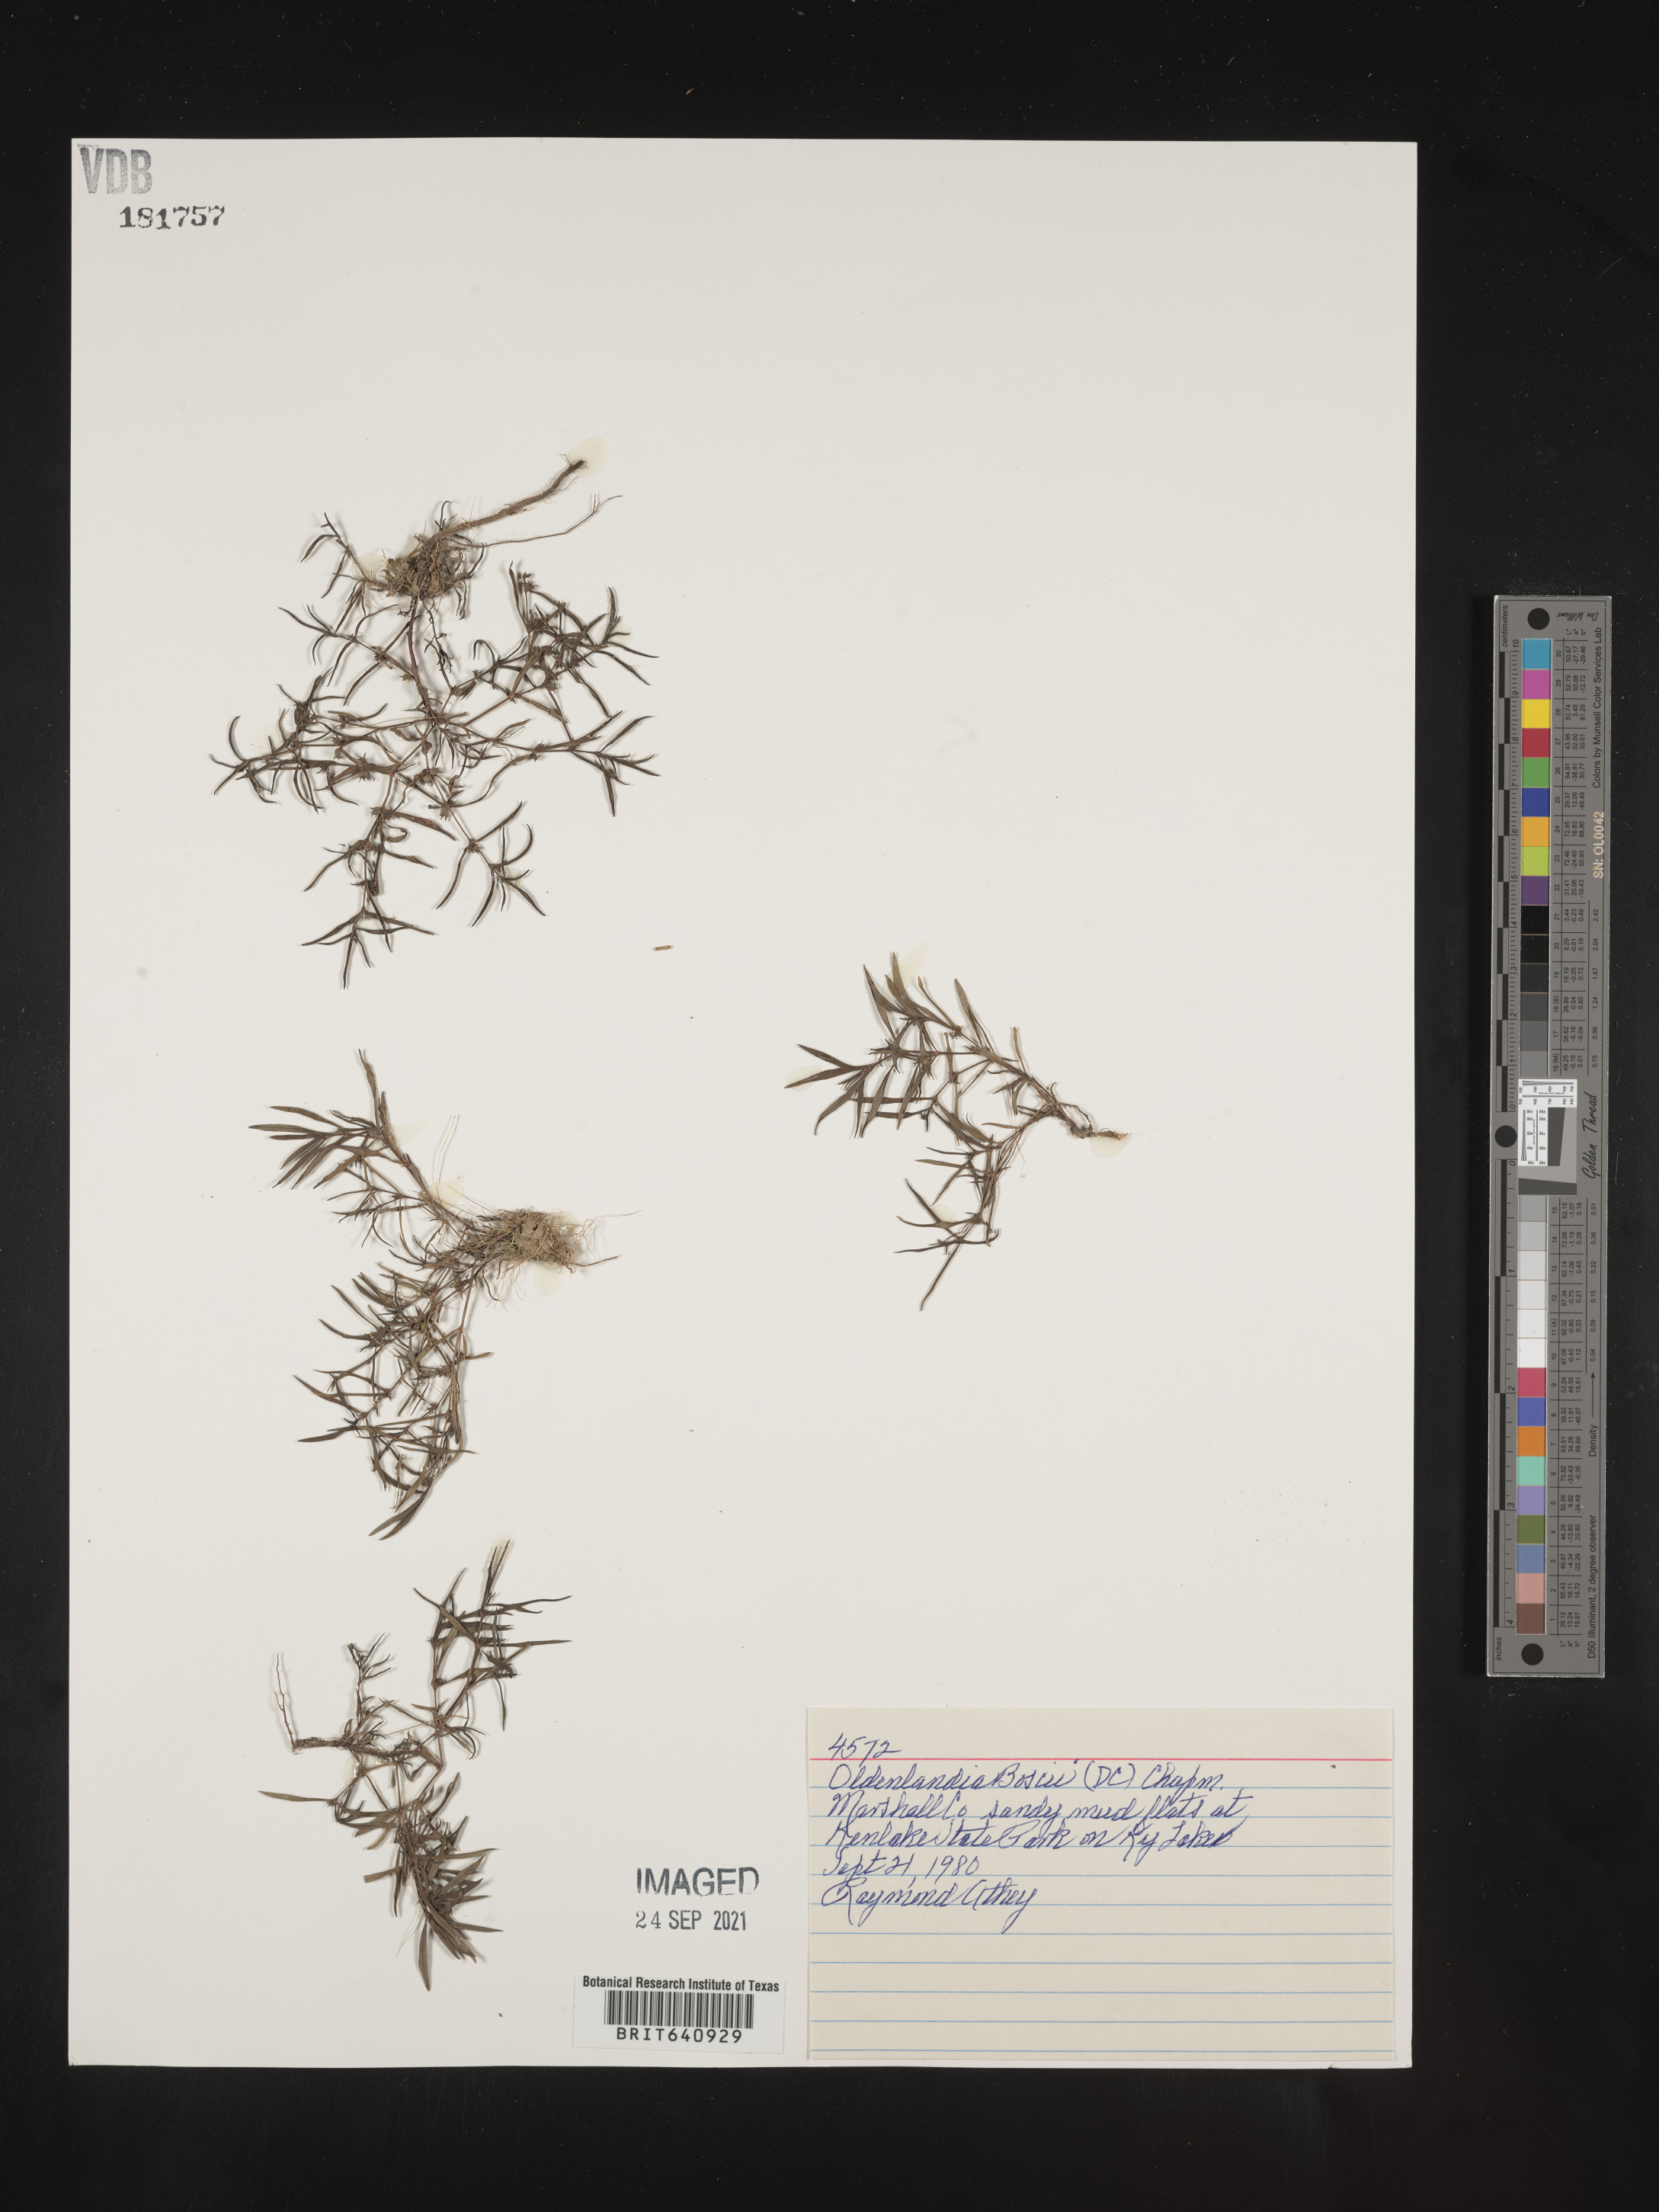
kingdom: Plantae
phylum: Tracheophyta
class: Magnoliopsida
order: Gentianales
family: Rubiaceae
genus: Oldenlandia
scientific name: Oldenlandia boscii
